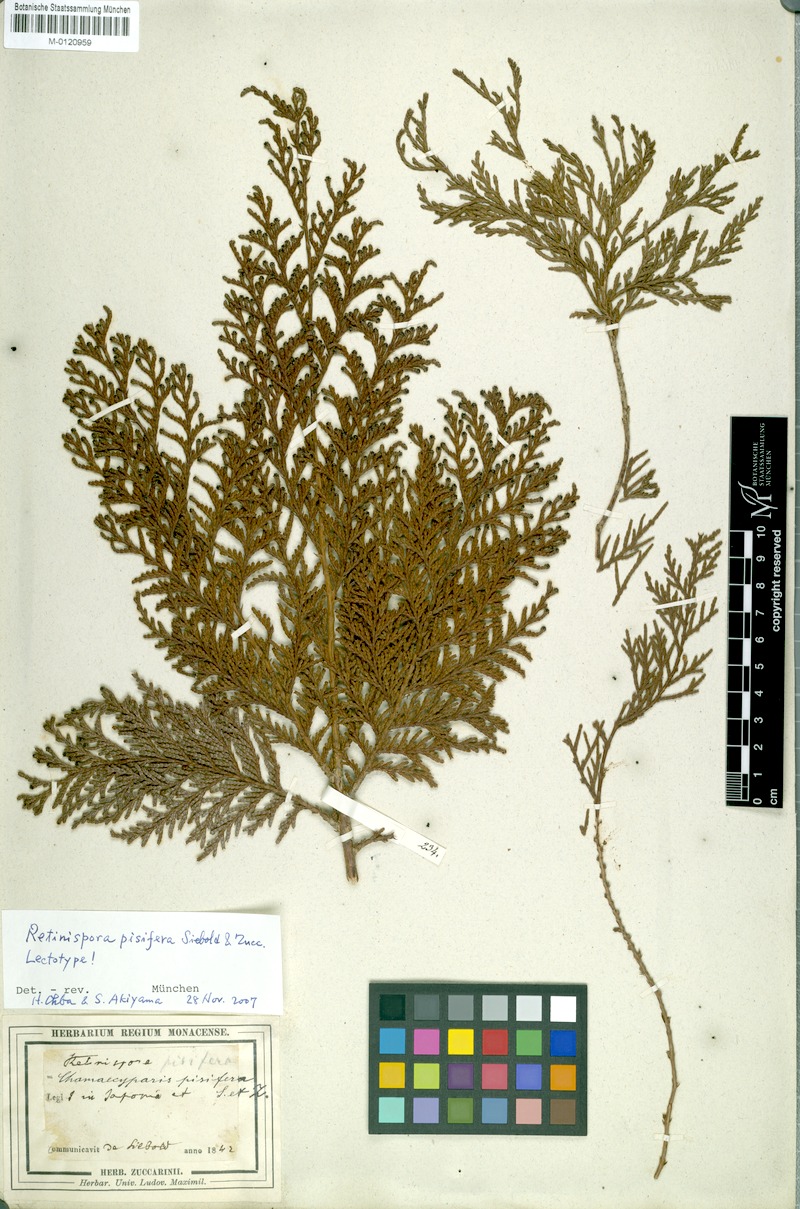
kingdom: Plantae
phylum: Tracheophyta
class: Pinopsida
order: Pinales
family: Cupressaceae
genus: Chamaecyparis
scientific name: Chamaecyparis pisifera
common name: Sawara cypress
